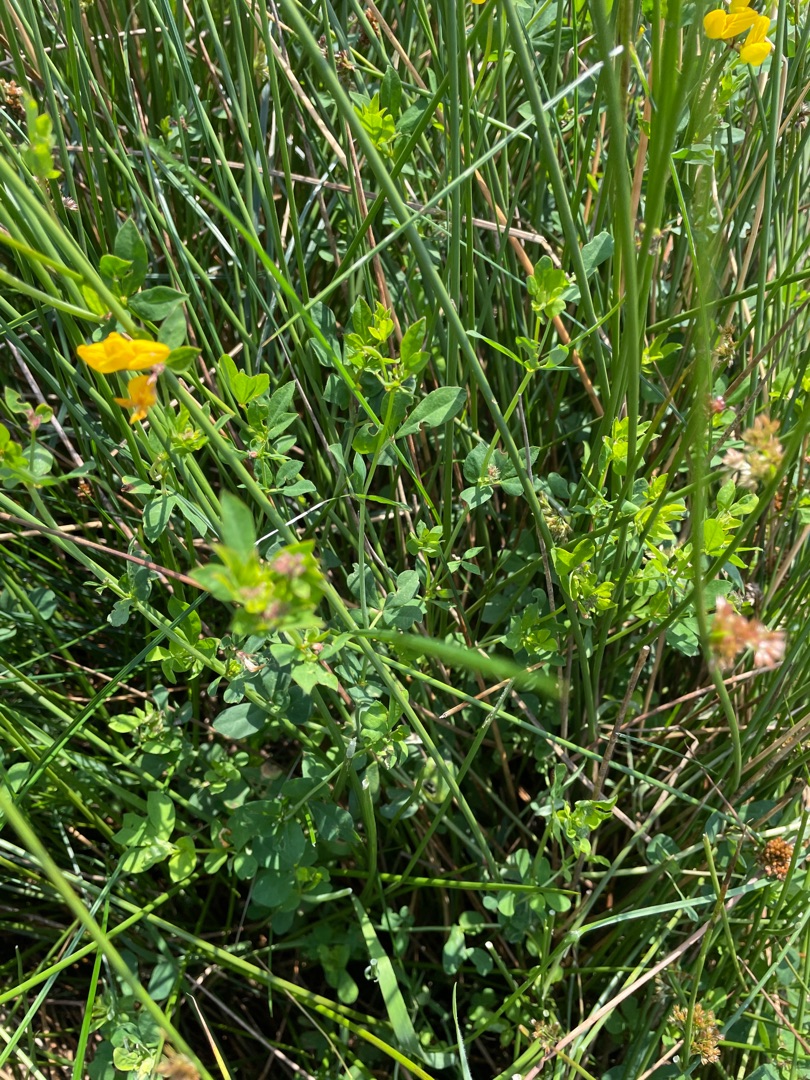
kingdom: Plantae
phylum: Tracheophyta
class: Magnoliopsida
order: Fabales
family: Fabaceae
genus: Lotus
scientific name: Lotus
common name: Kællingetandslægten
